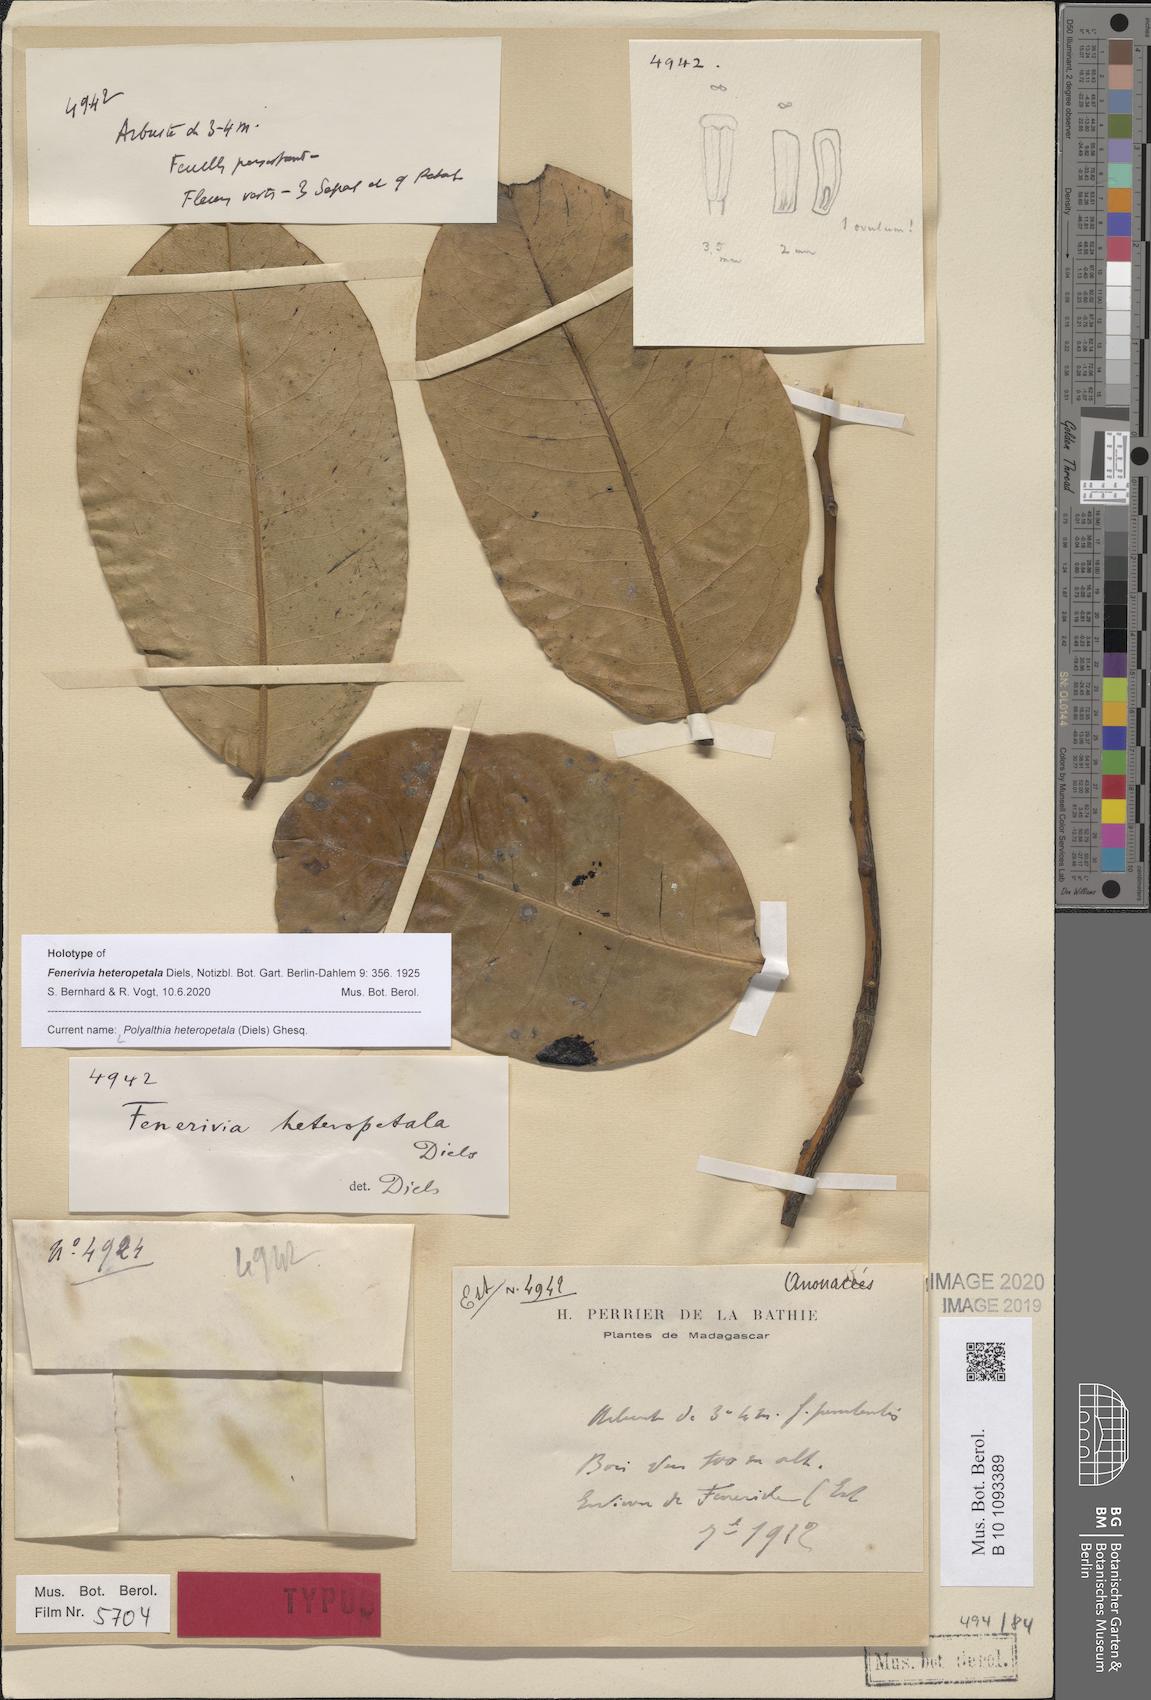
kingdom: Plantae
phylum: Tracheophyta
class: Magnoliopsida
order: Magnoliales
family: Annonaceae
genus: Fenerivia
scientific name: Fenerivia heteropetala
